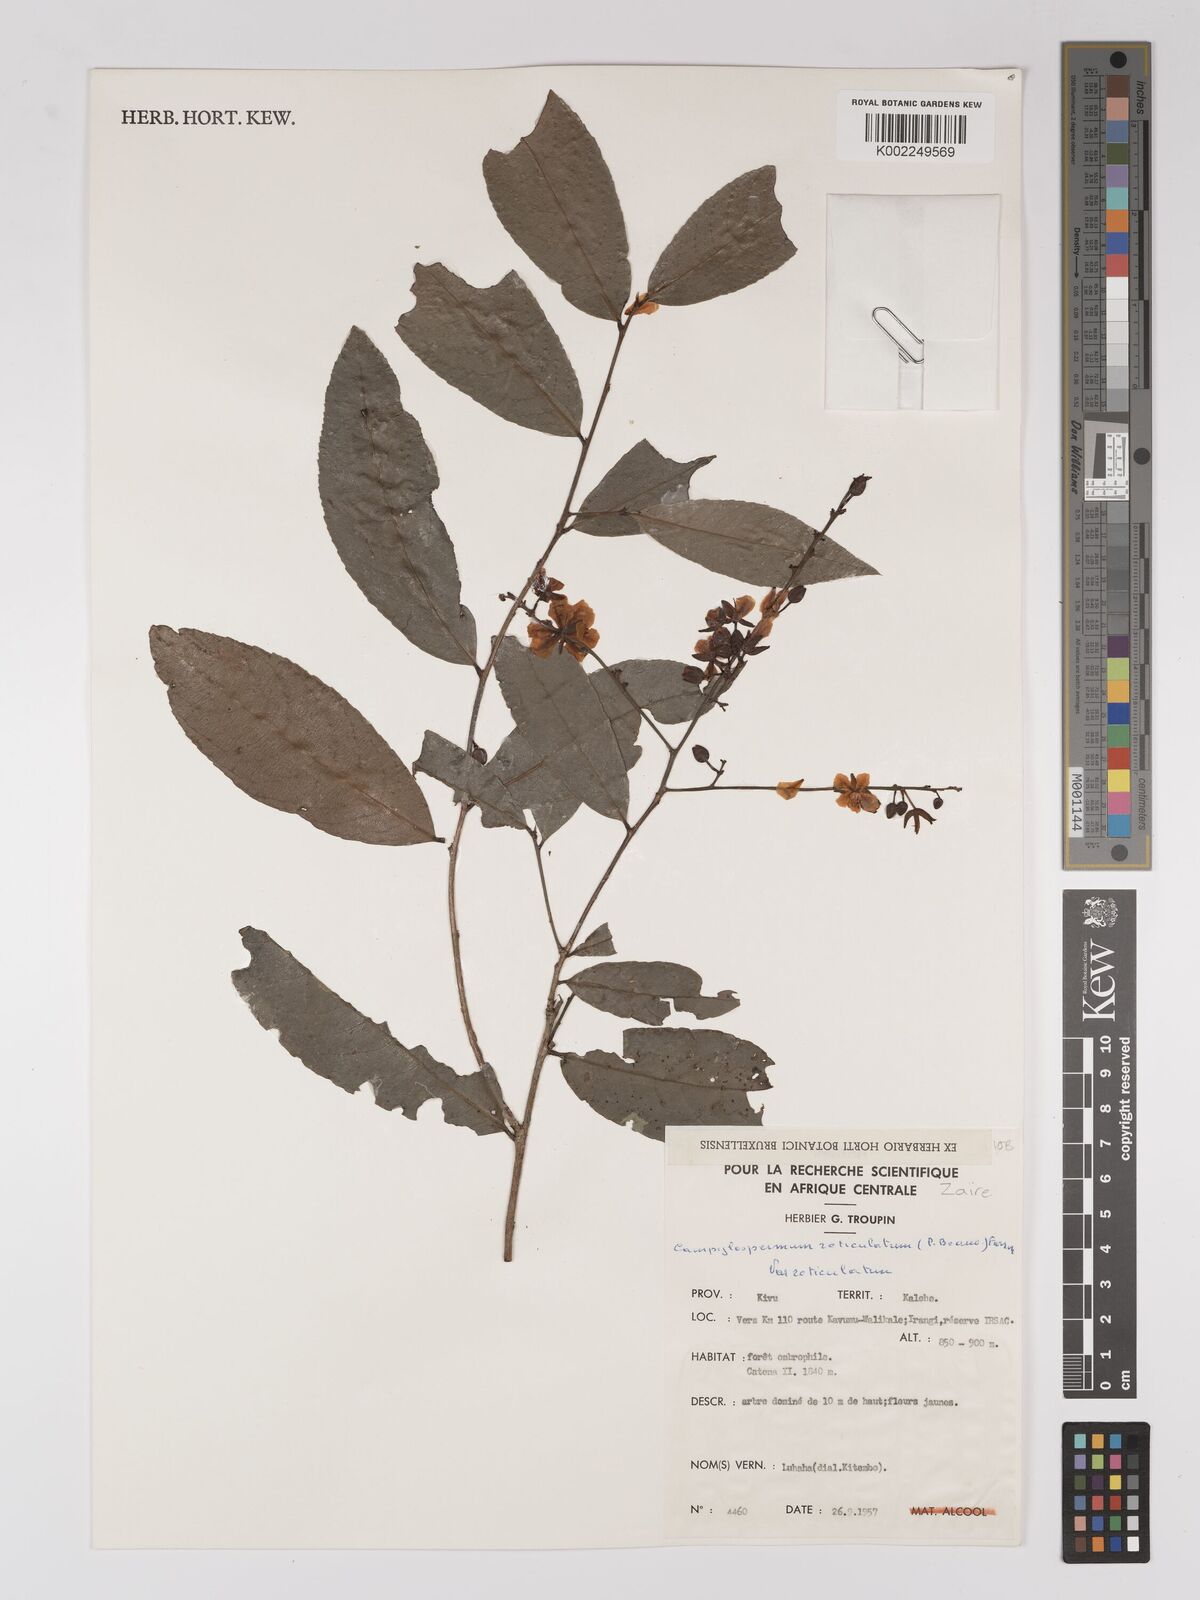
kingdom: Plantae
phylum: Tracheophyta
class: Magnoliopsida
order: Malpighiales
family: Ochnaceae
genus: Campylospermum
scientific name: Campylospermum reticulatum
